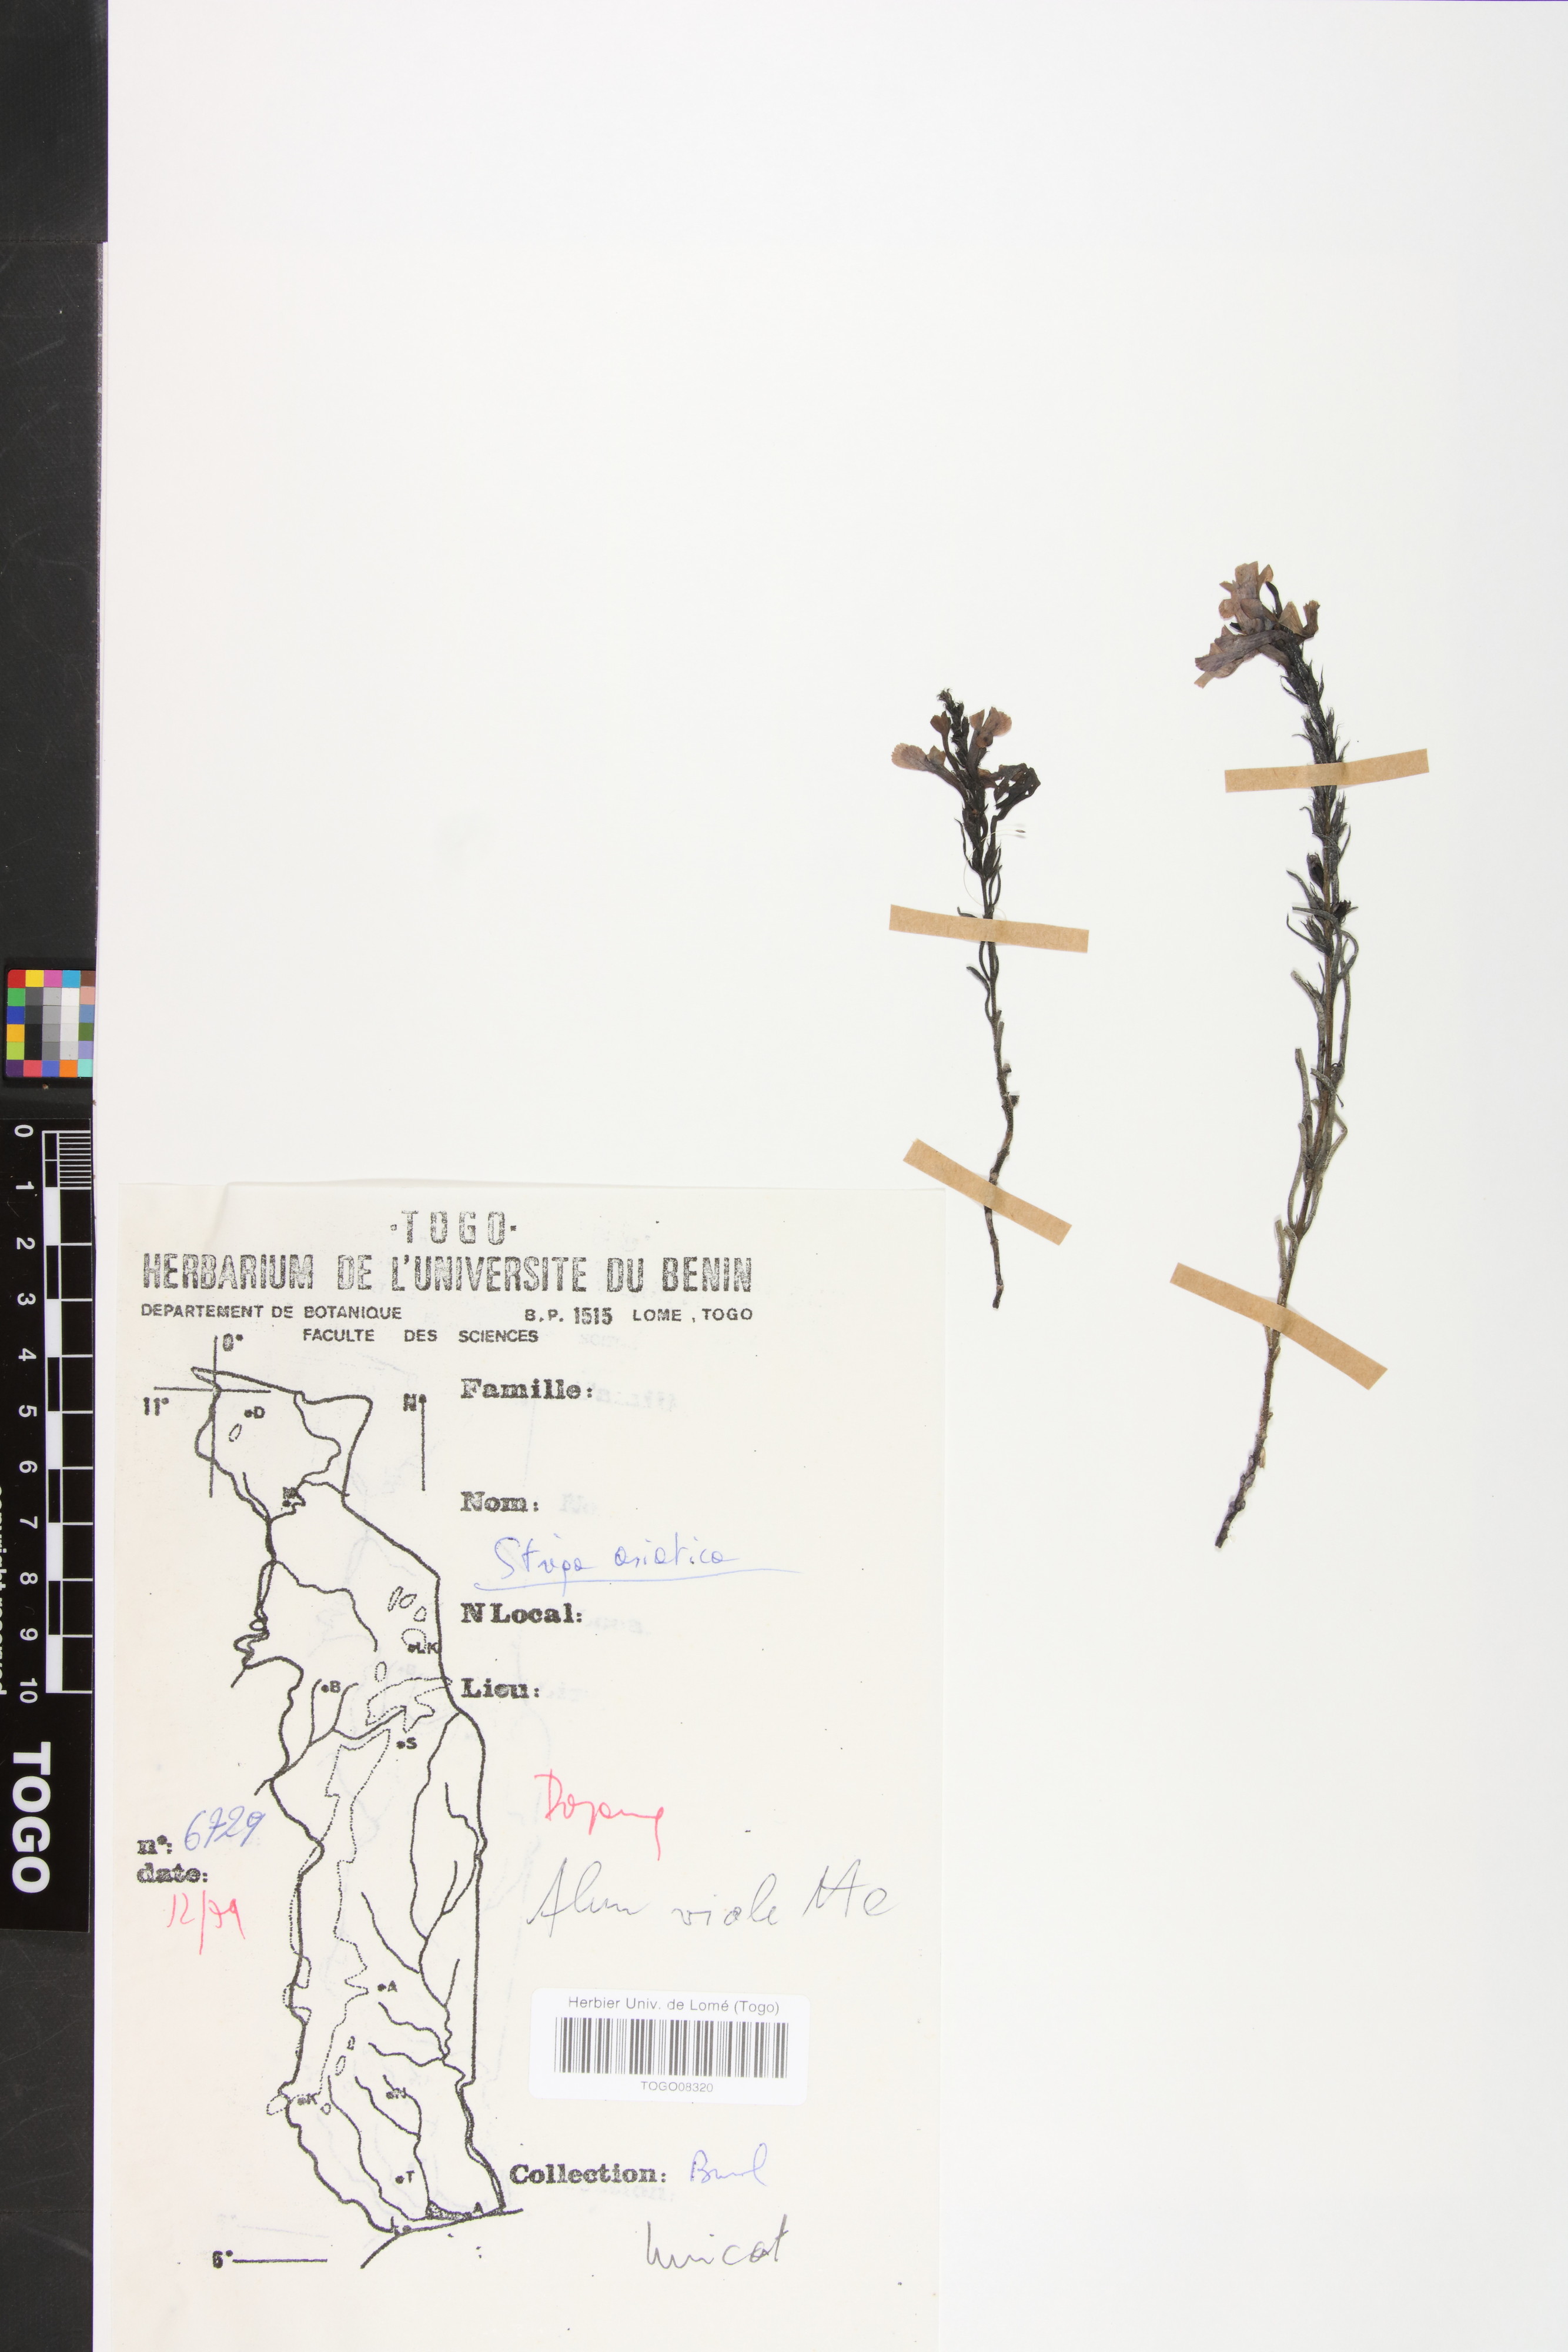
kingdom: Plantae
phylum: Tracheophyta
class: Magnoliopsida
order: Lamiales
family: Orobanchaceae
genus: Striga
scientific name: Striga asiatica
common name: Asiatic witchweed
